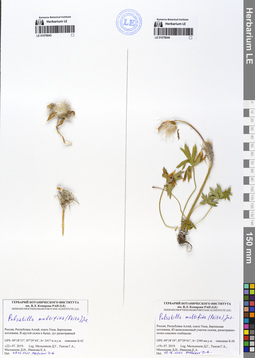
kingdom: Plantae
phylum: Tracheophyta
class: Magnoliopsida
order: Ranunculales
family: Ranunculaceae
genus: Pulsatilla
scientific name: Pulsatilla patens
